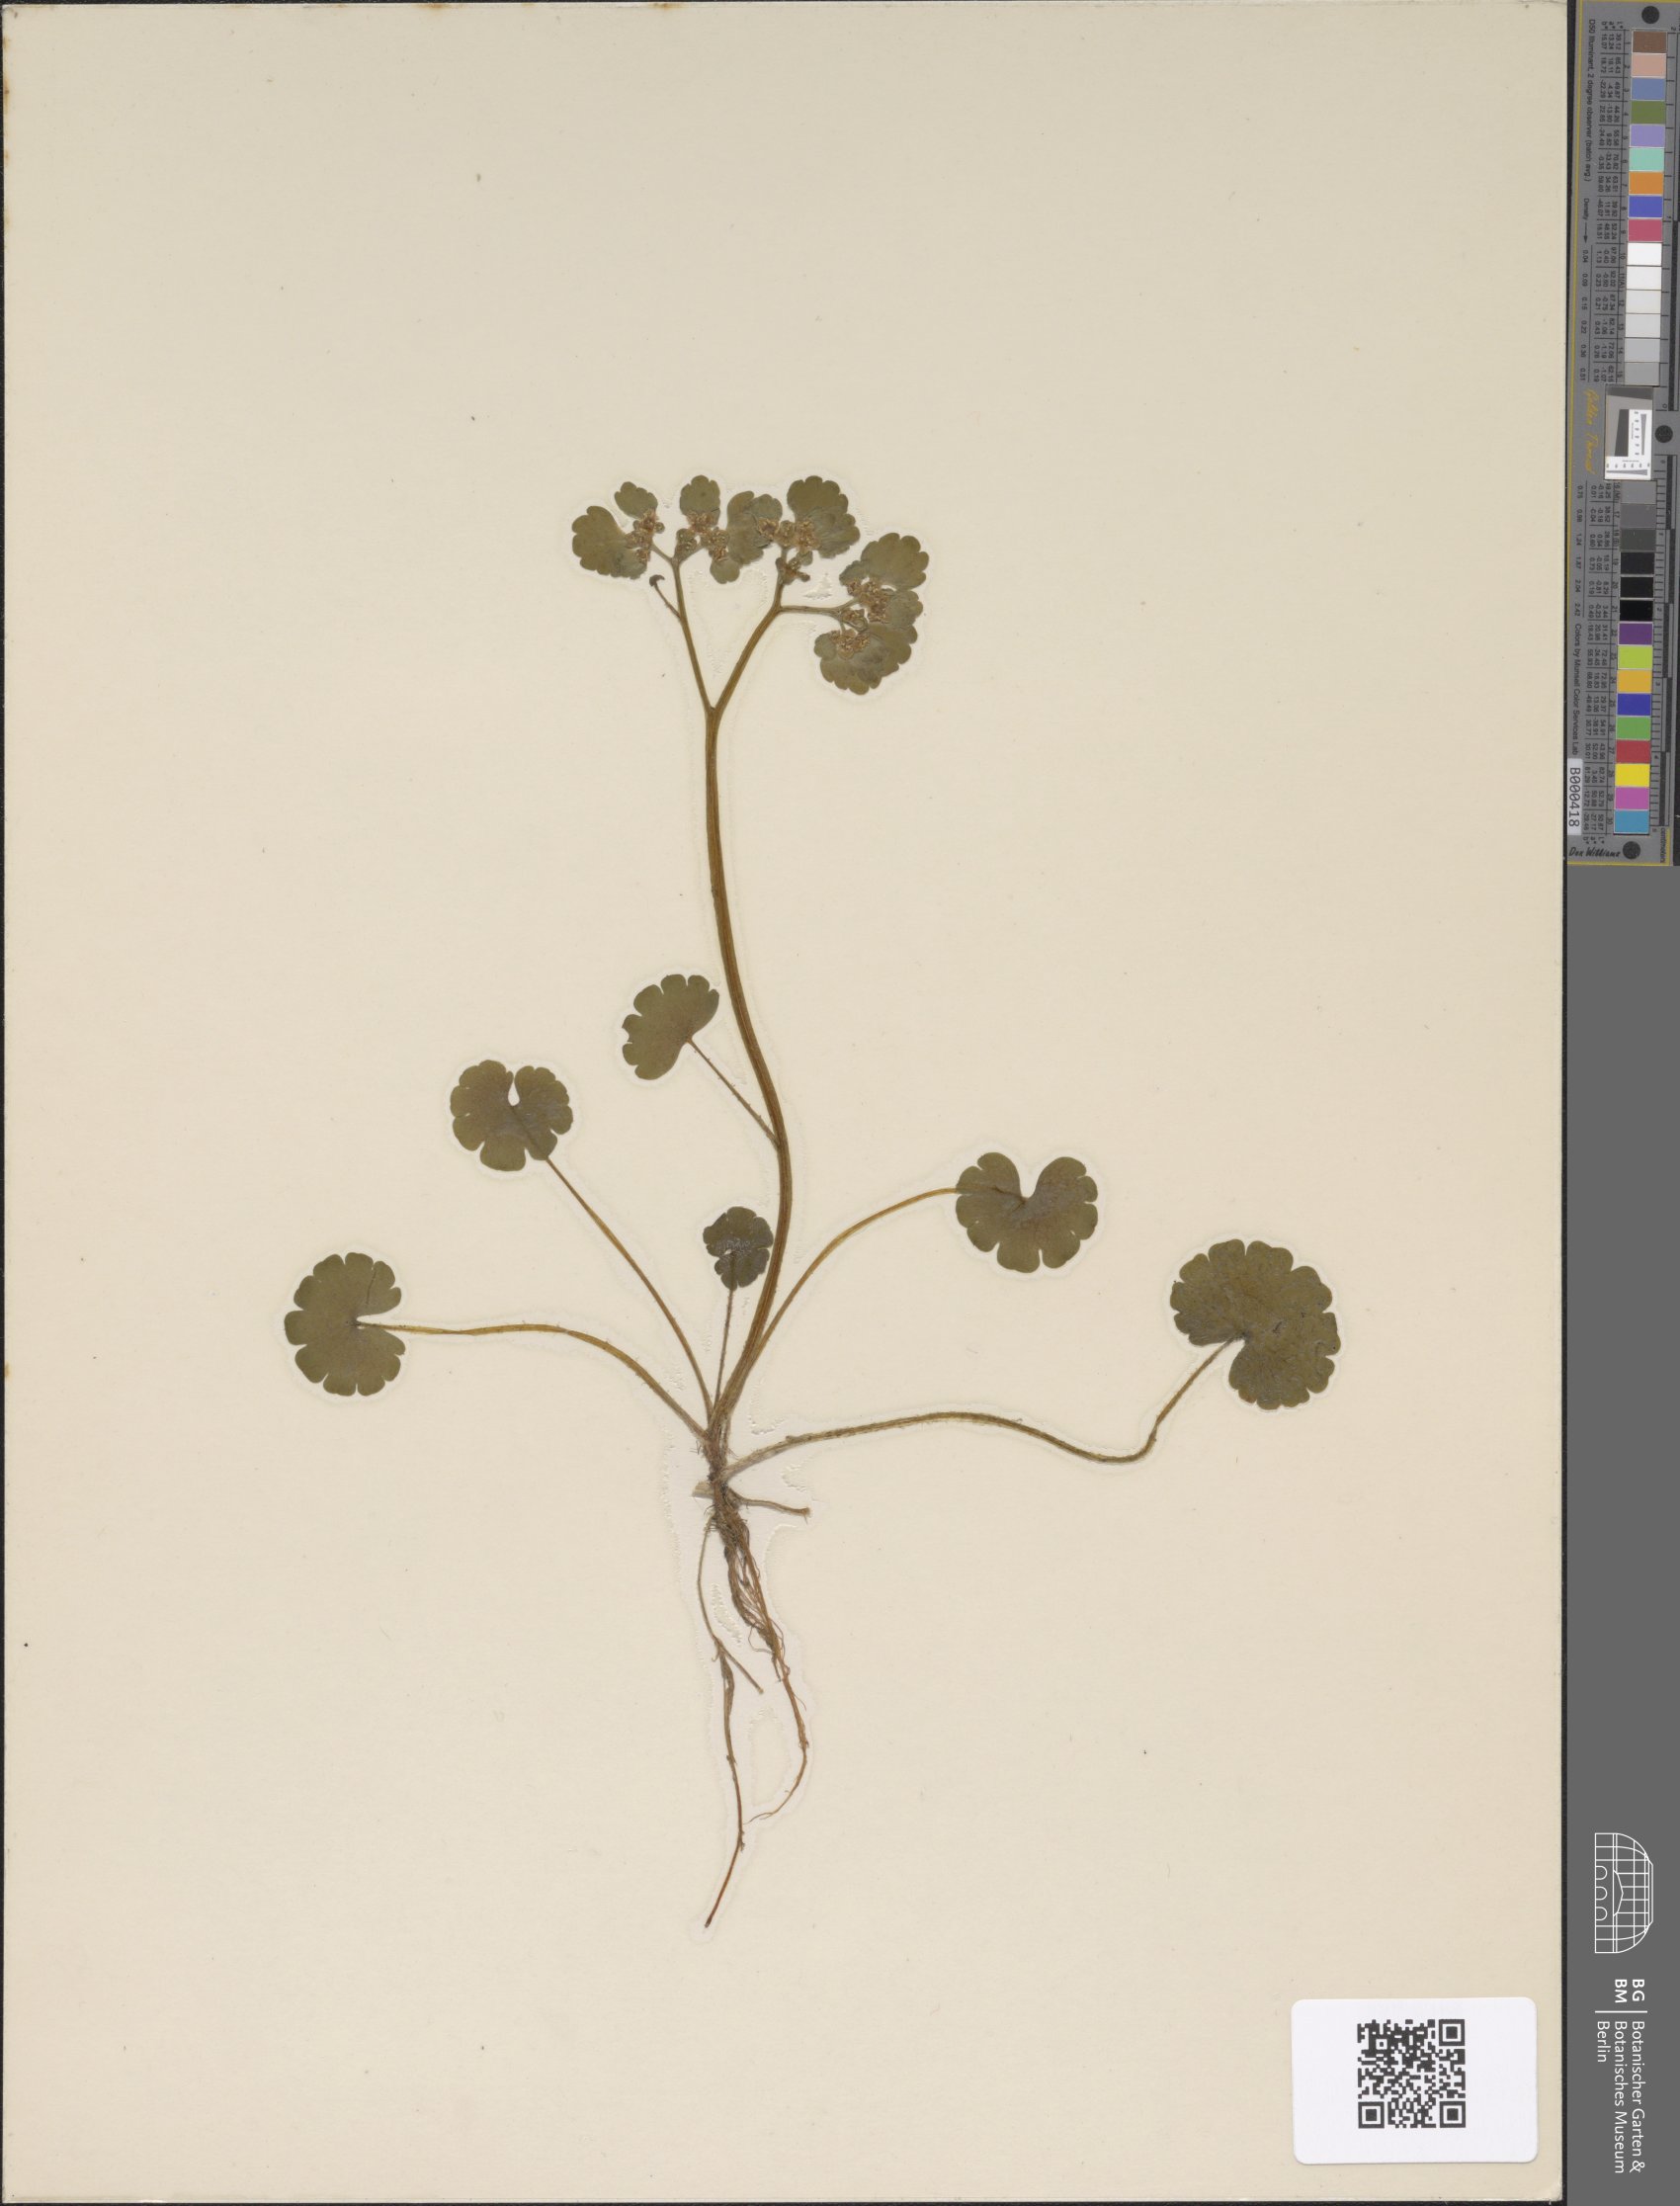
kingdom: Plantae
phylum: Tracheophyta
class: Magnoliopsida
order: Saxifragales
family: Saxifragaceae
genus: Chrysosplenium
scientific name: Chrysosplenium alternifolium
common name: Alternate-leaved golden-saxifrage
